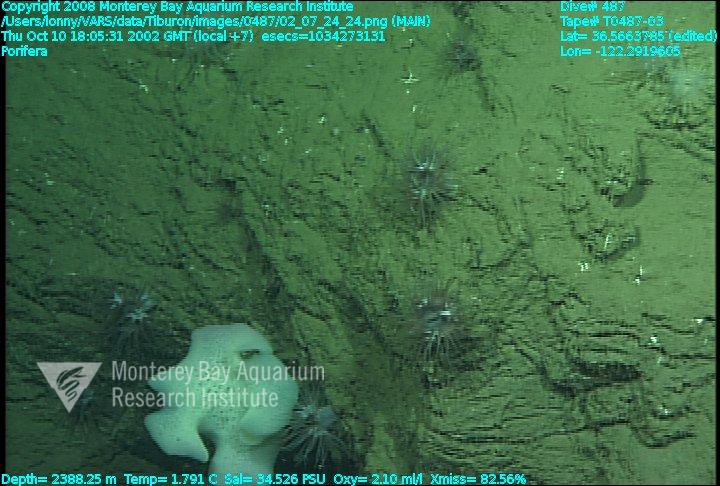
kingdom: Animalia
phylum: Porifera
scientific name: Porifera
